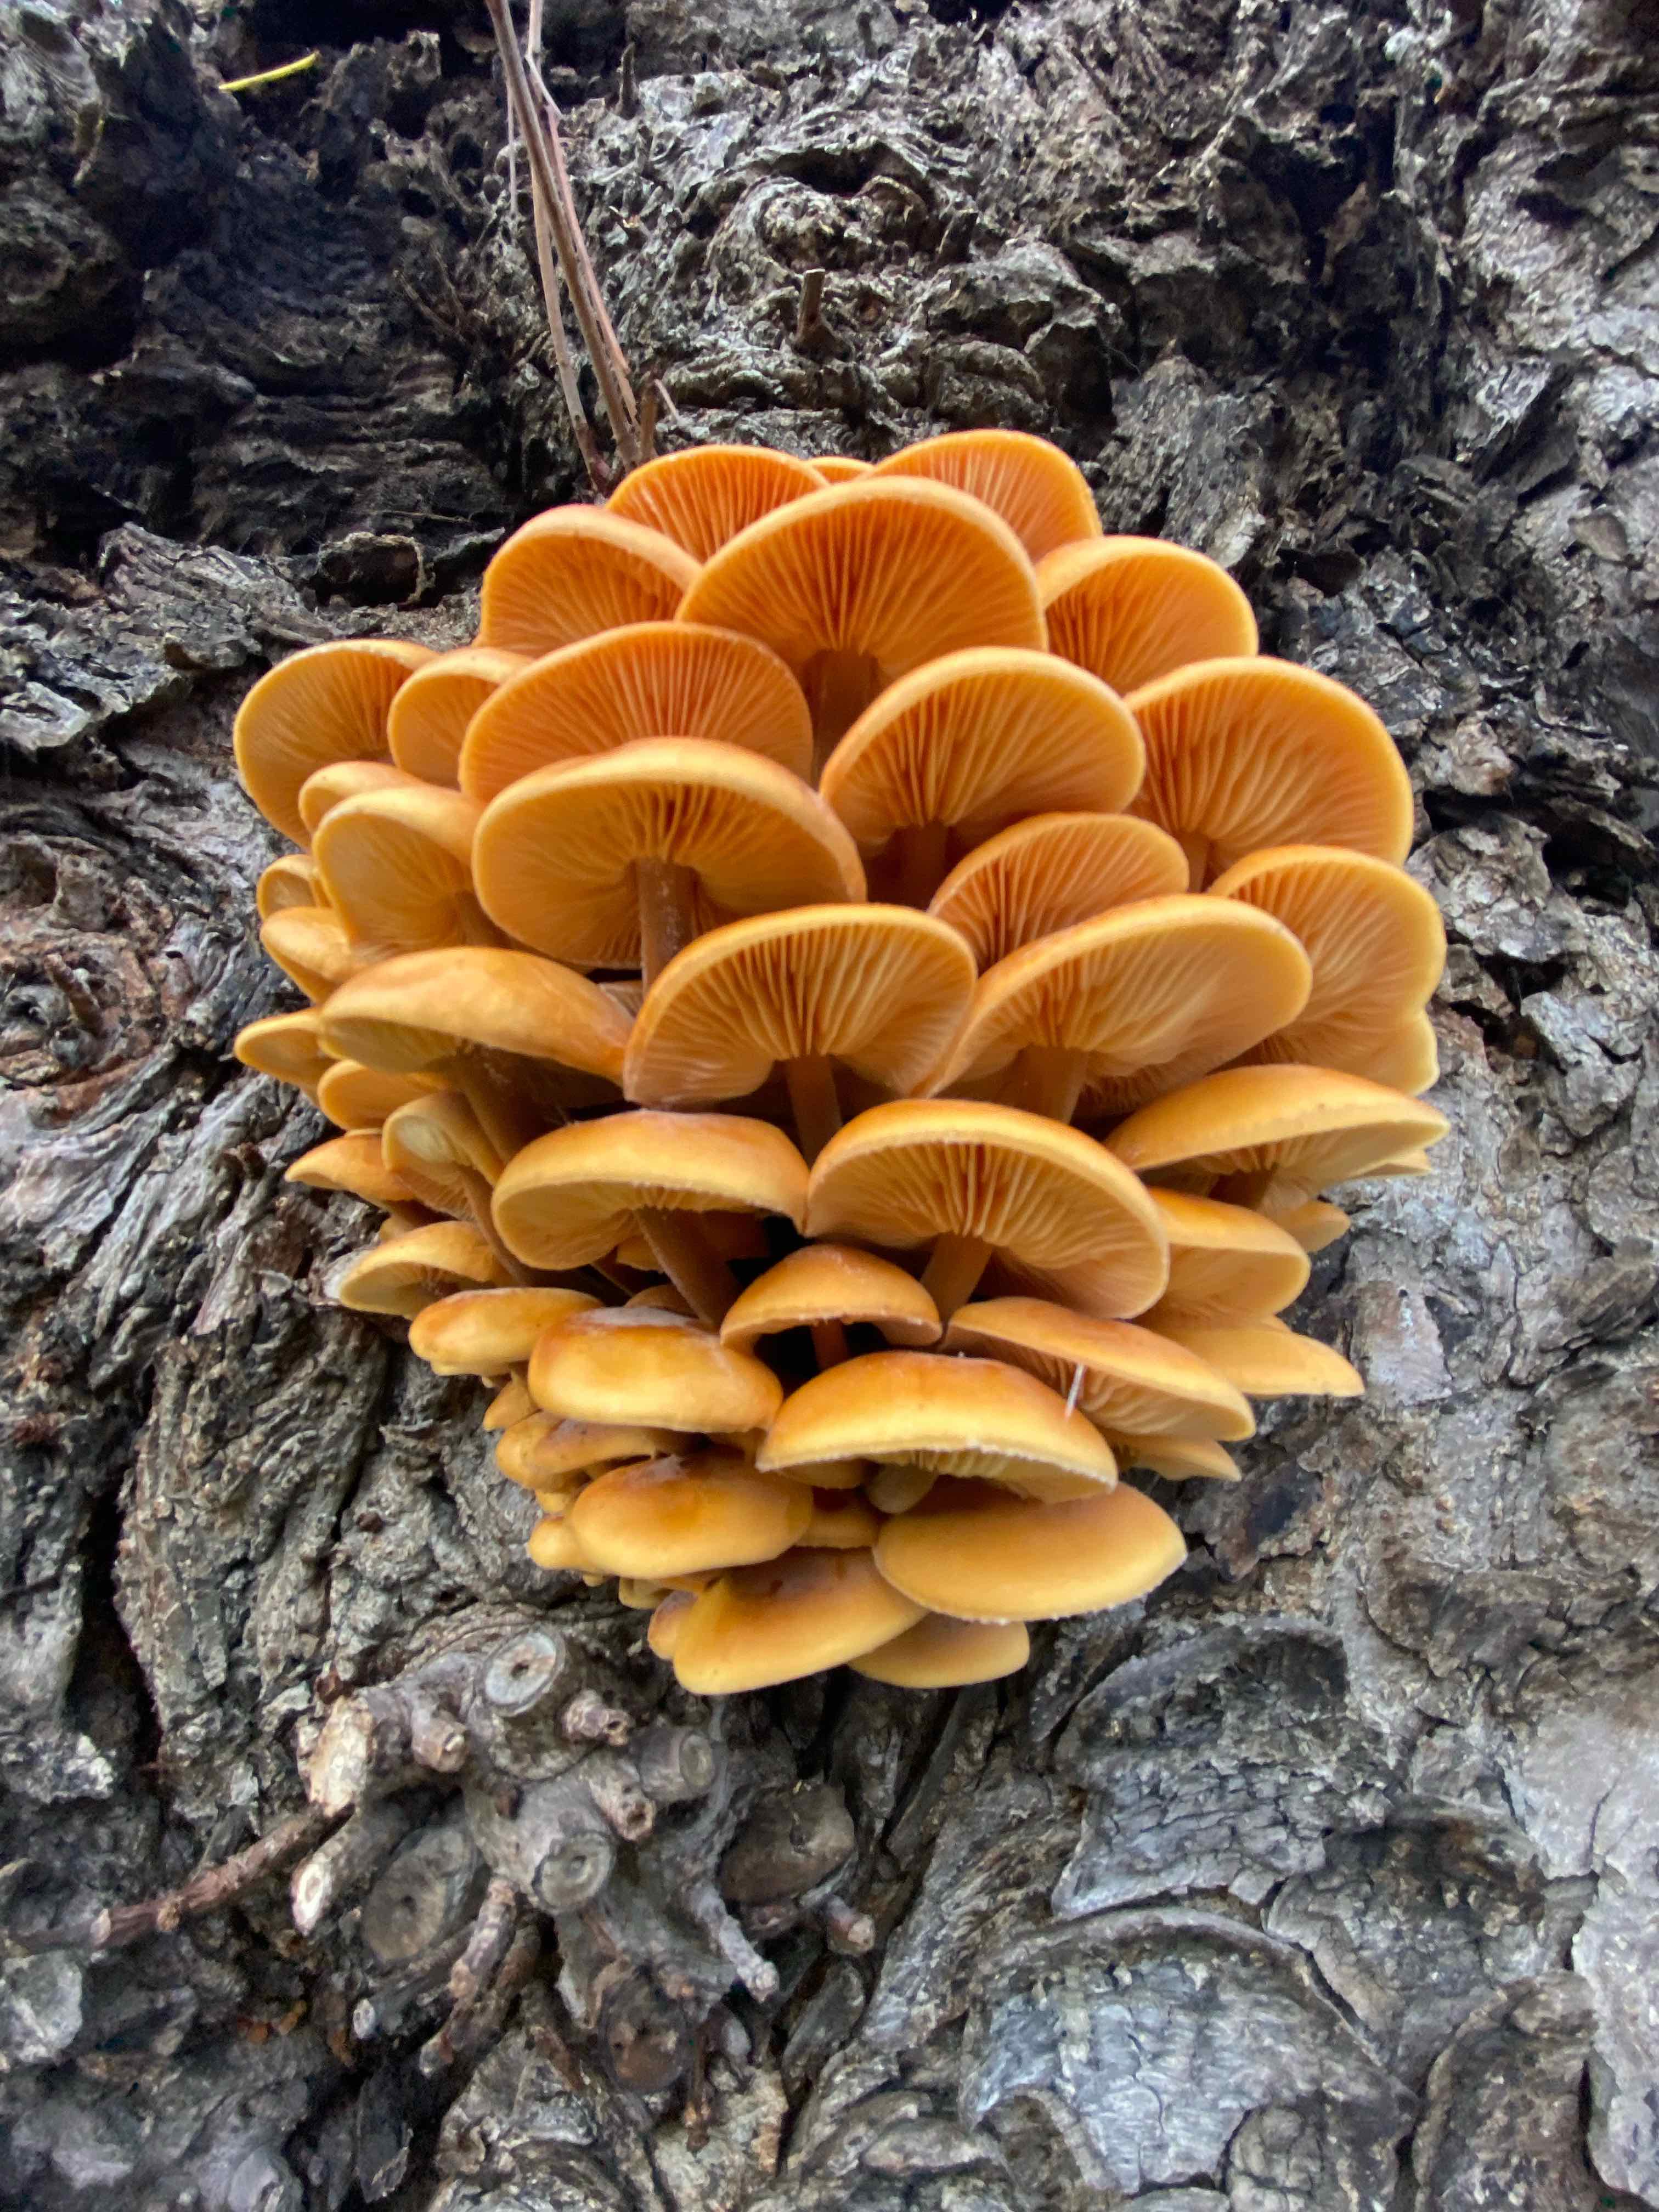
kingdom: Fungi
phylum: Basidiomycota
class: Agaricomycetes
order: Agaricales
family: Physalacriaceae
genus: Flammulina
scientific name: Flammulina velutipes
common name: gul fløjlsfod
